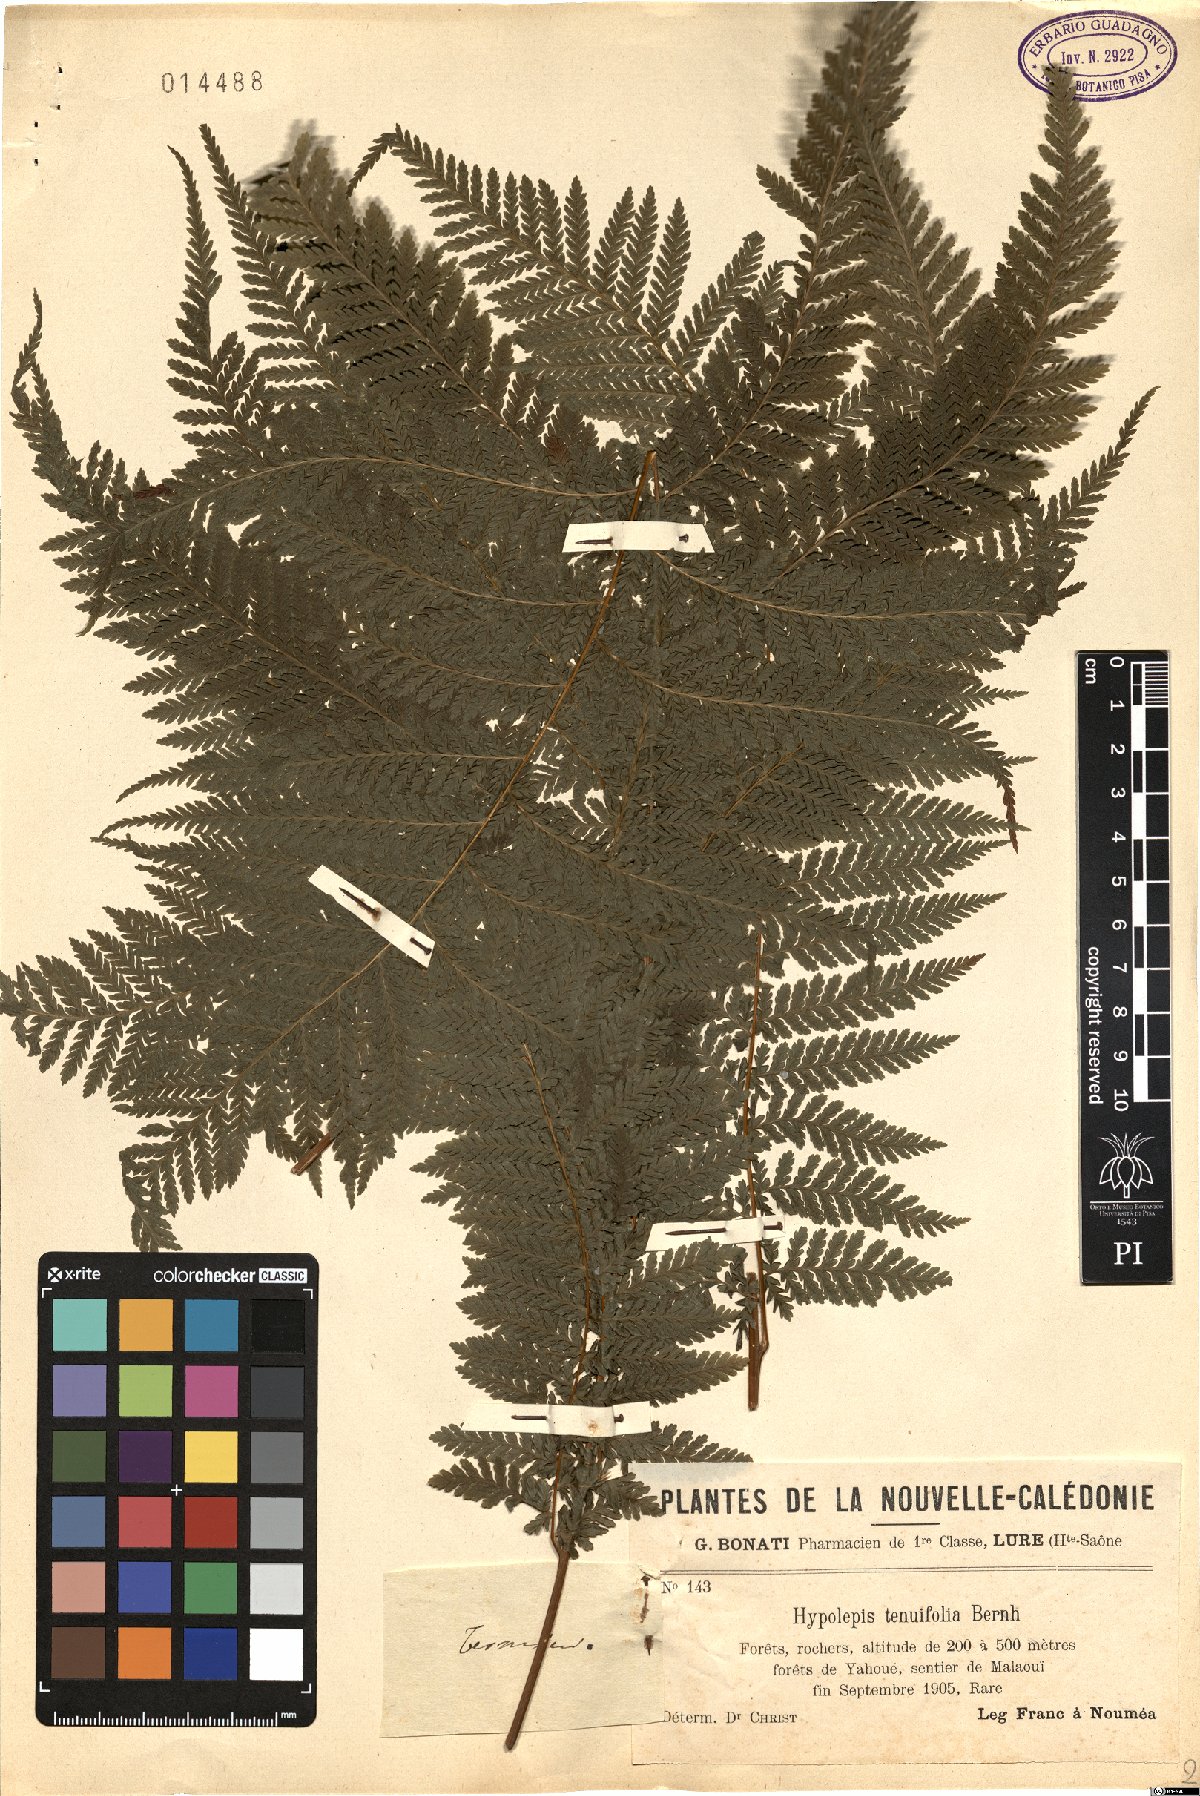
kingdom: Plantae
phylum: Tracheophyta
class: Polypodiopsida
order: Polypodiales
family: Dennstaedtiaceae
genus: Hypolepis
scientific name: Hypolepis tenuifolia
